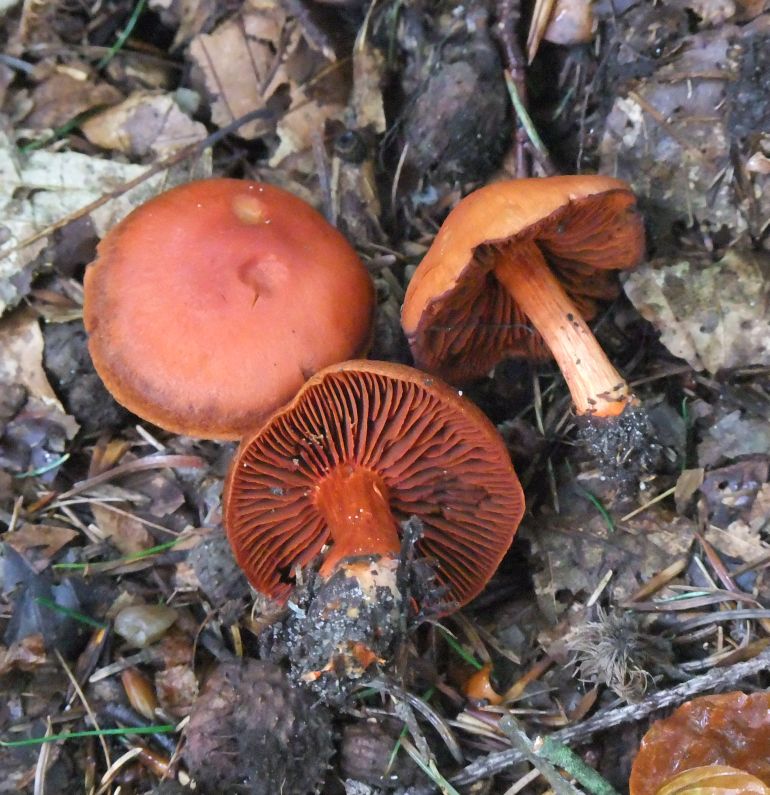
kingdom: Fungi
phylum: Basidiomycota
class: Agaricomycetes
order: Agaricales
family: Cortinariaceae
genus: Cortinarius
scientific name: Cortinarius cinnabarinus
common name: cinnober-slørhat
